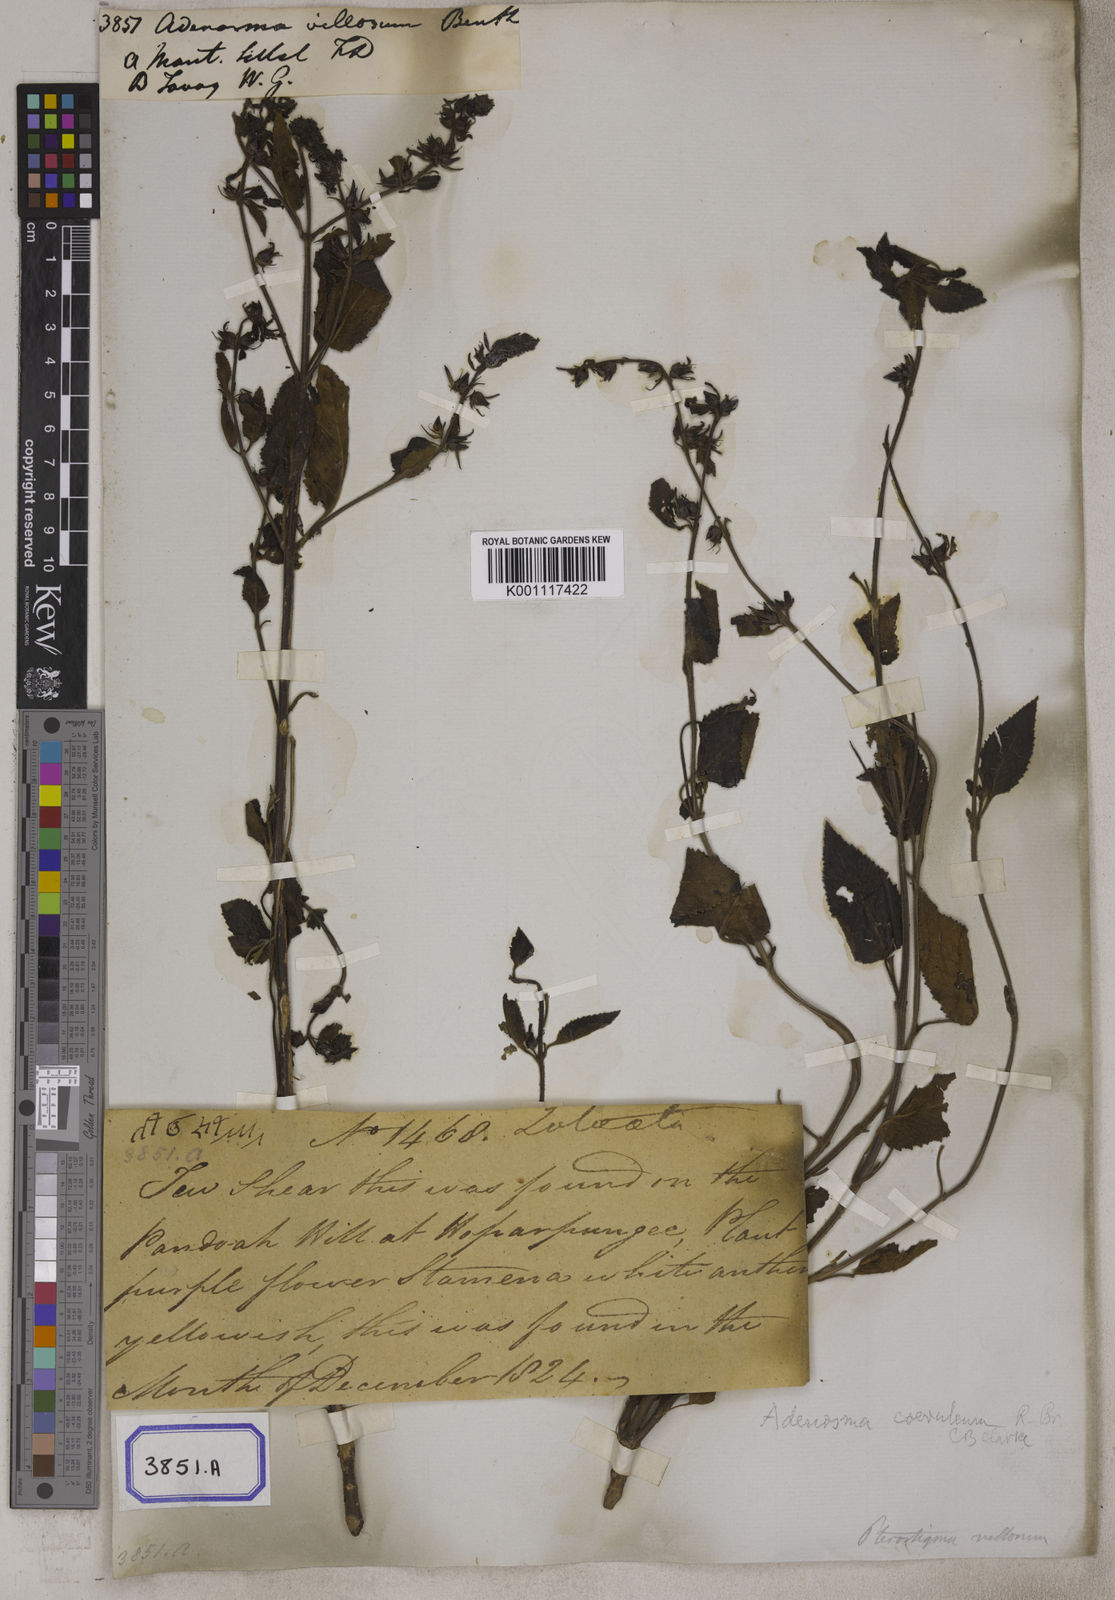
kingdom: Plantae
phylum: Tracheophyta
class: Magnoliopsida
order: Lamiales
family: Plantaginaceae
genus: Adenosma
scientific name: Adenosma glutinosa
